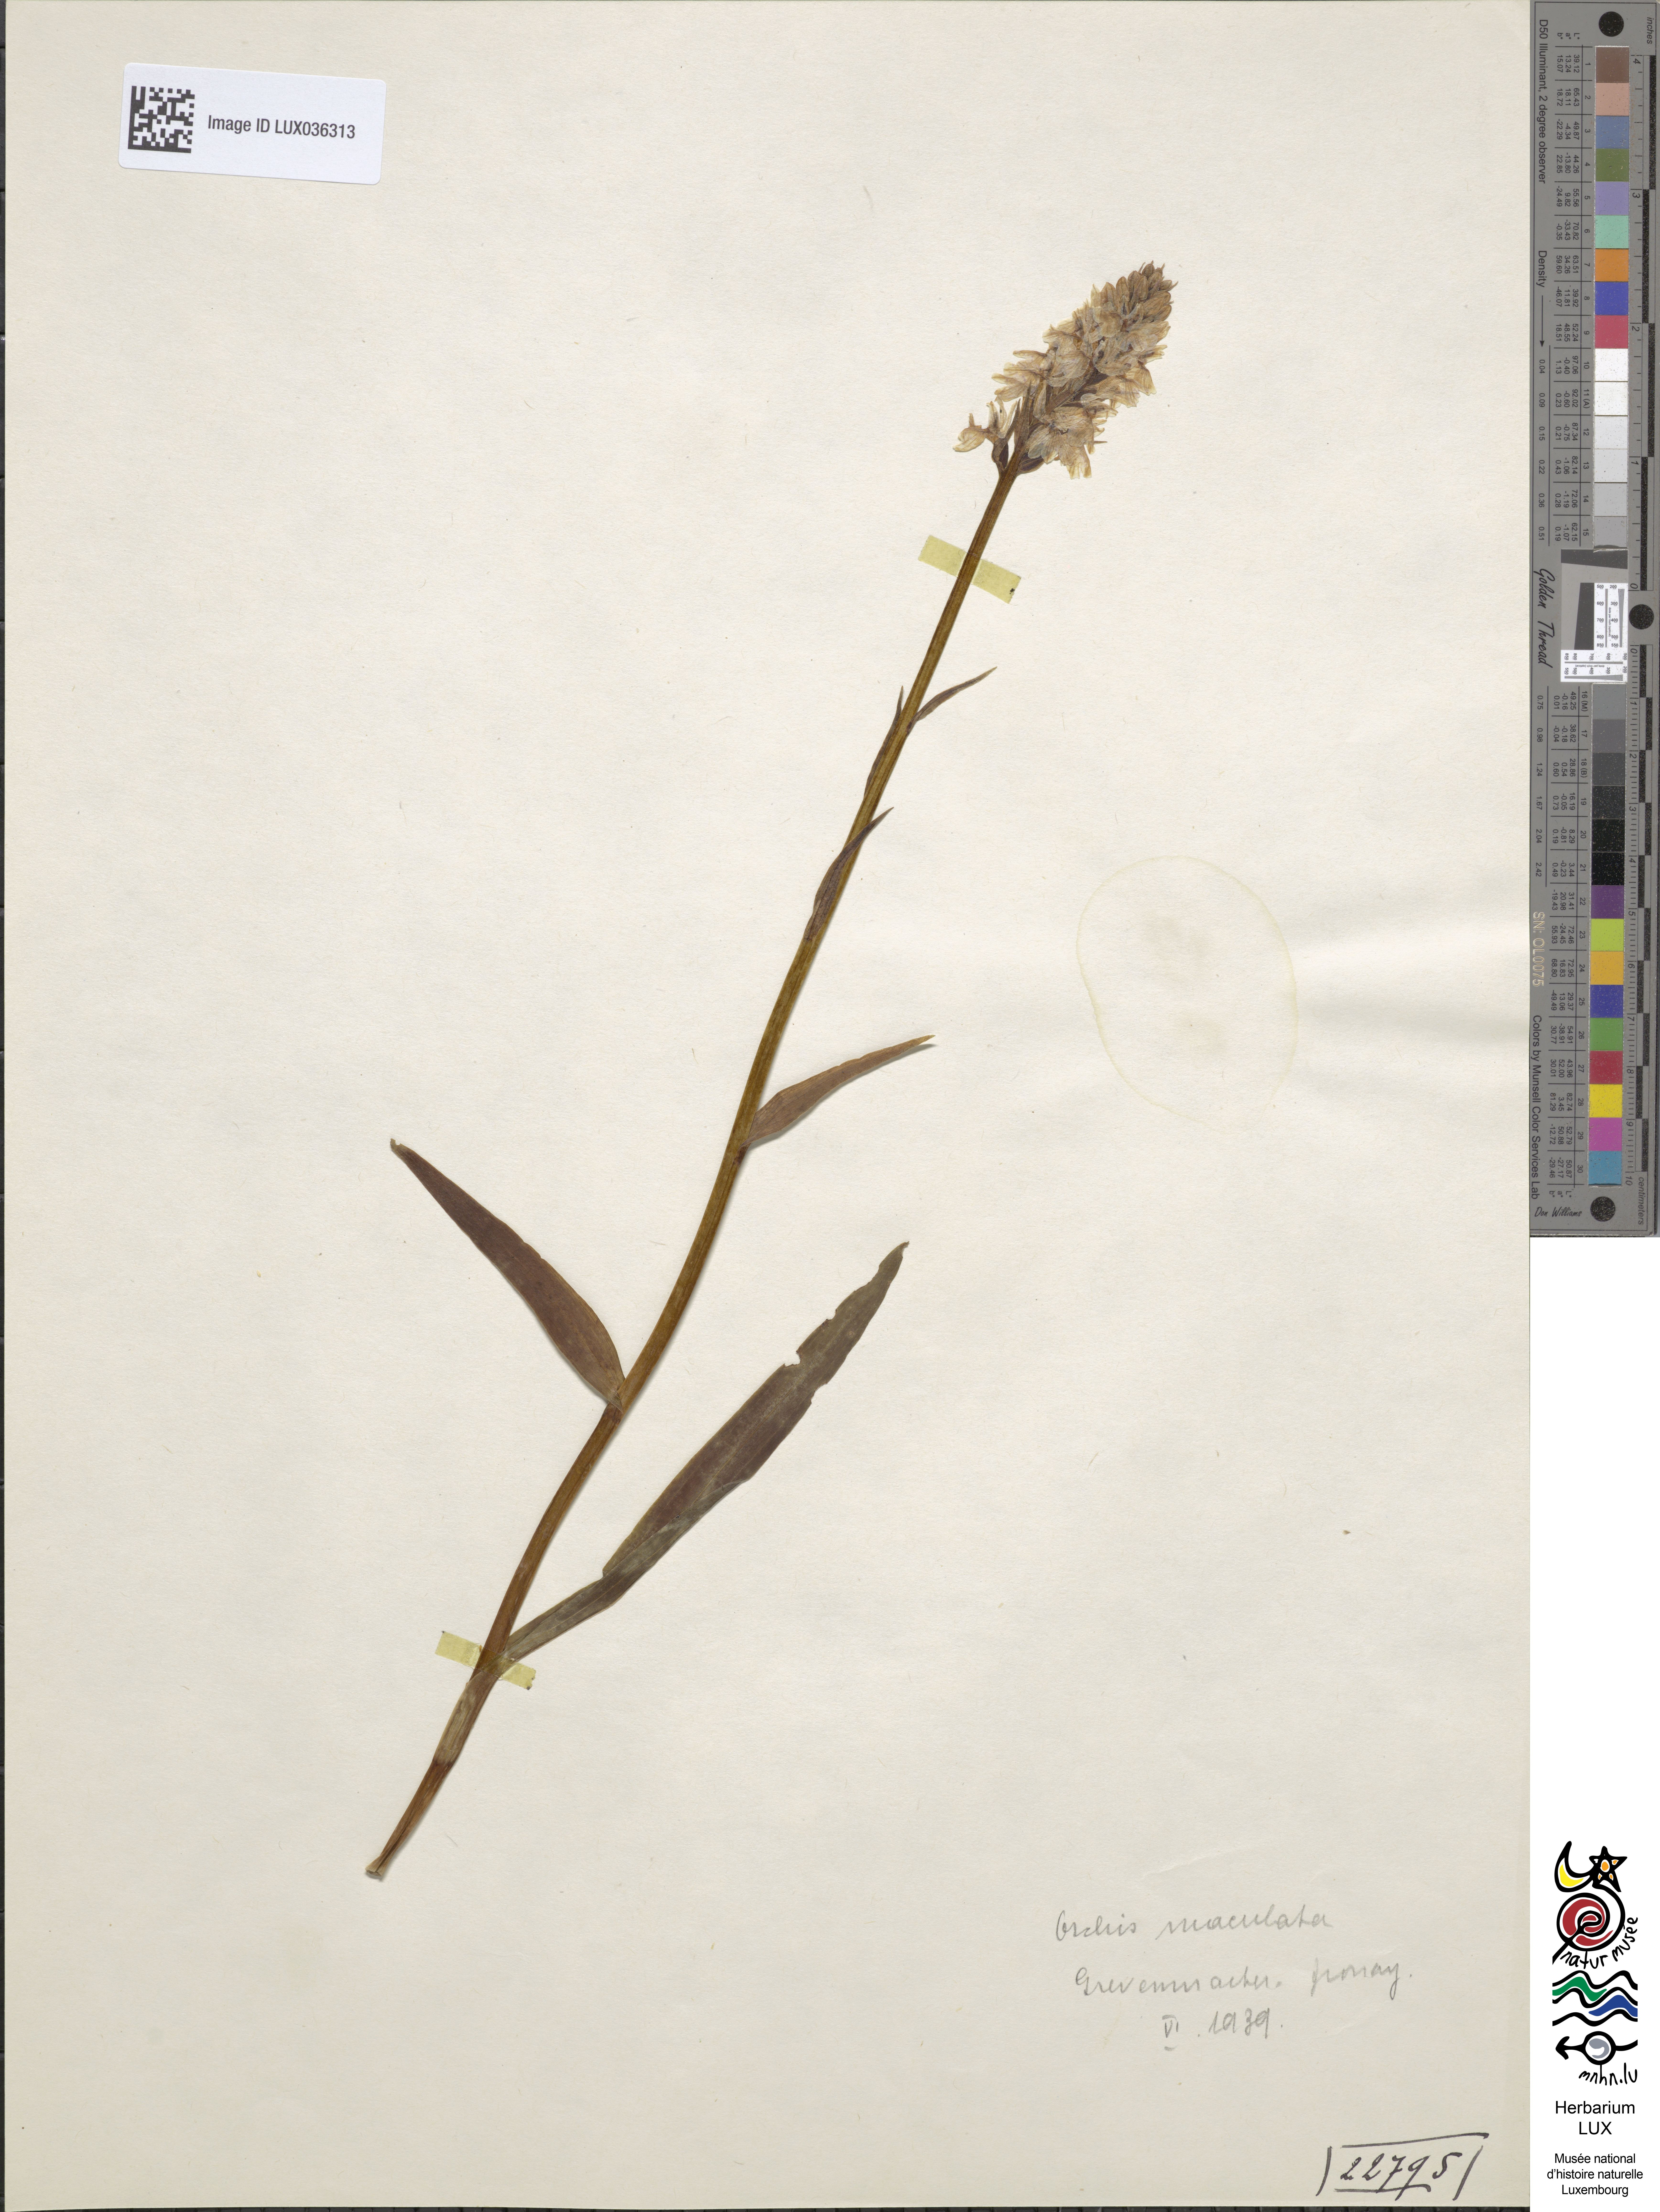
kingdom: Plantae
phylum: Tracheophyta
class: Liliopsida
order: Asparagales
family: Orchidaceae
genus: Dactylorhiza
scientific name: Dactylorhiza maculata
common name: Heath spotted-orchid
